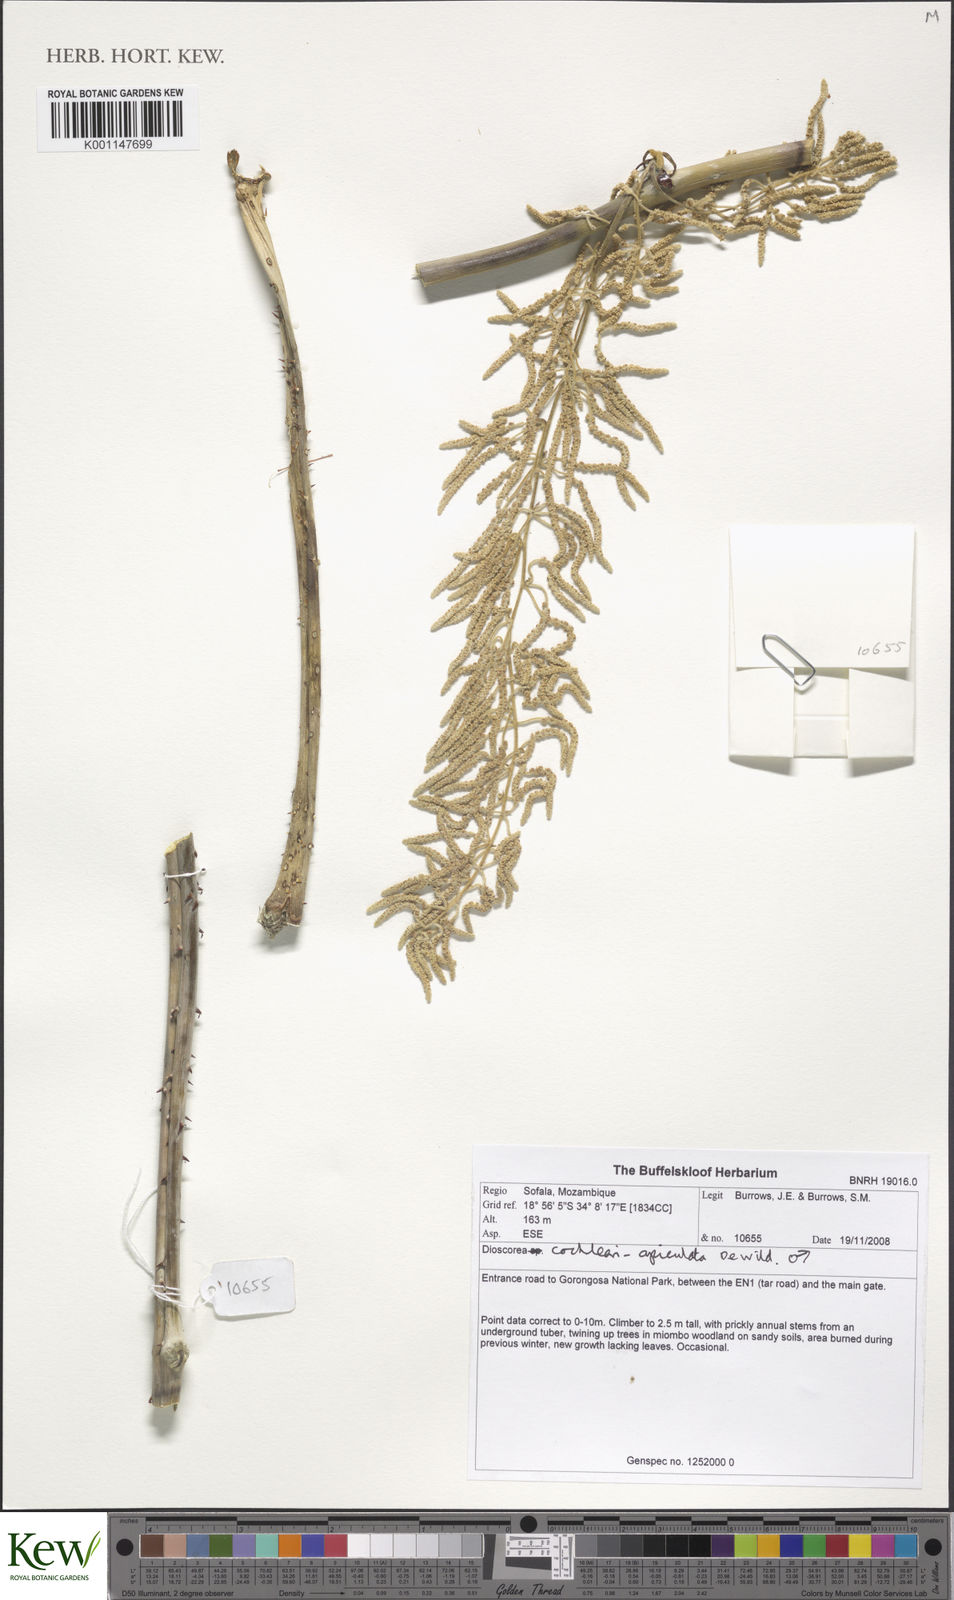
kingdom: Plantae
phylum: Tracheophyta
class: Liliopsida
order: Dioscoreales
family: Dioscoreaceae
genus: Dioscorea
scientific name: Dioscorea cochleariapiculata
